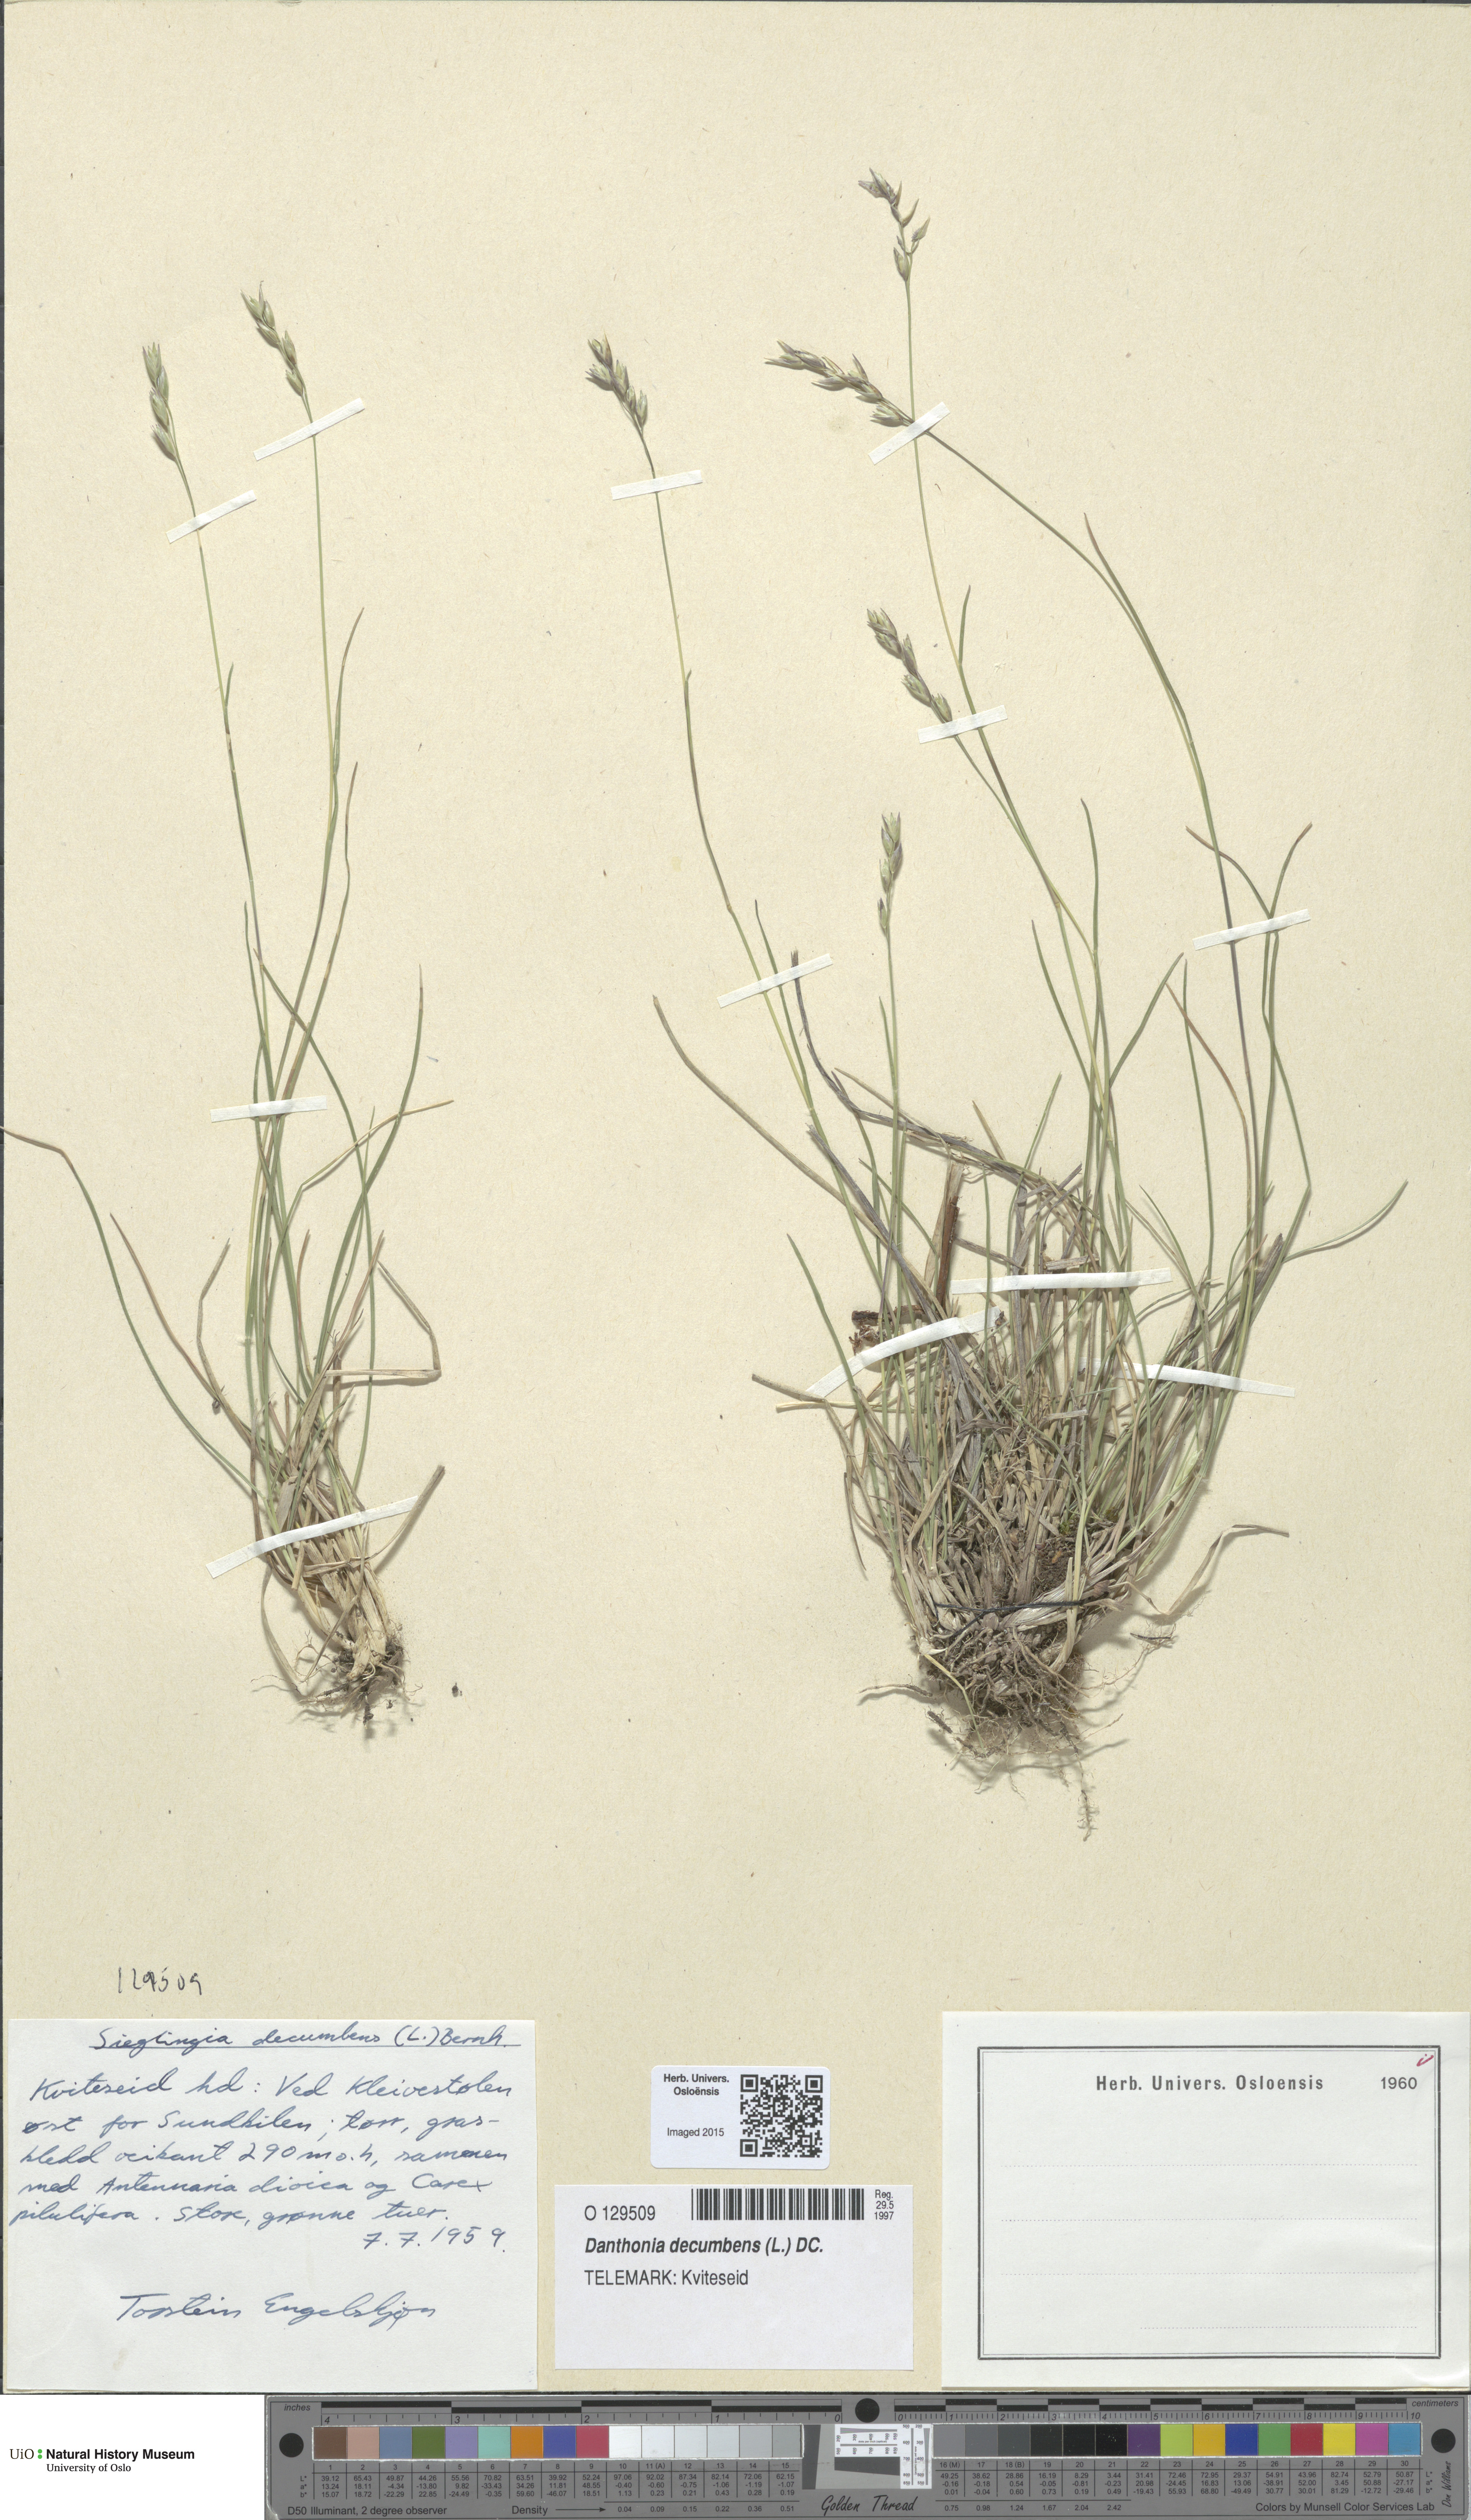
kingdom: Plantae
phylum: Tracheophyta
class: Liliopsida
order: Poales
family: Poaceae
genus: Danthonia
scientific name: Danthonia decumbens
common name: Common heathgrass
